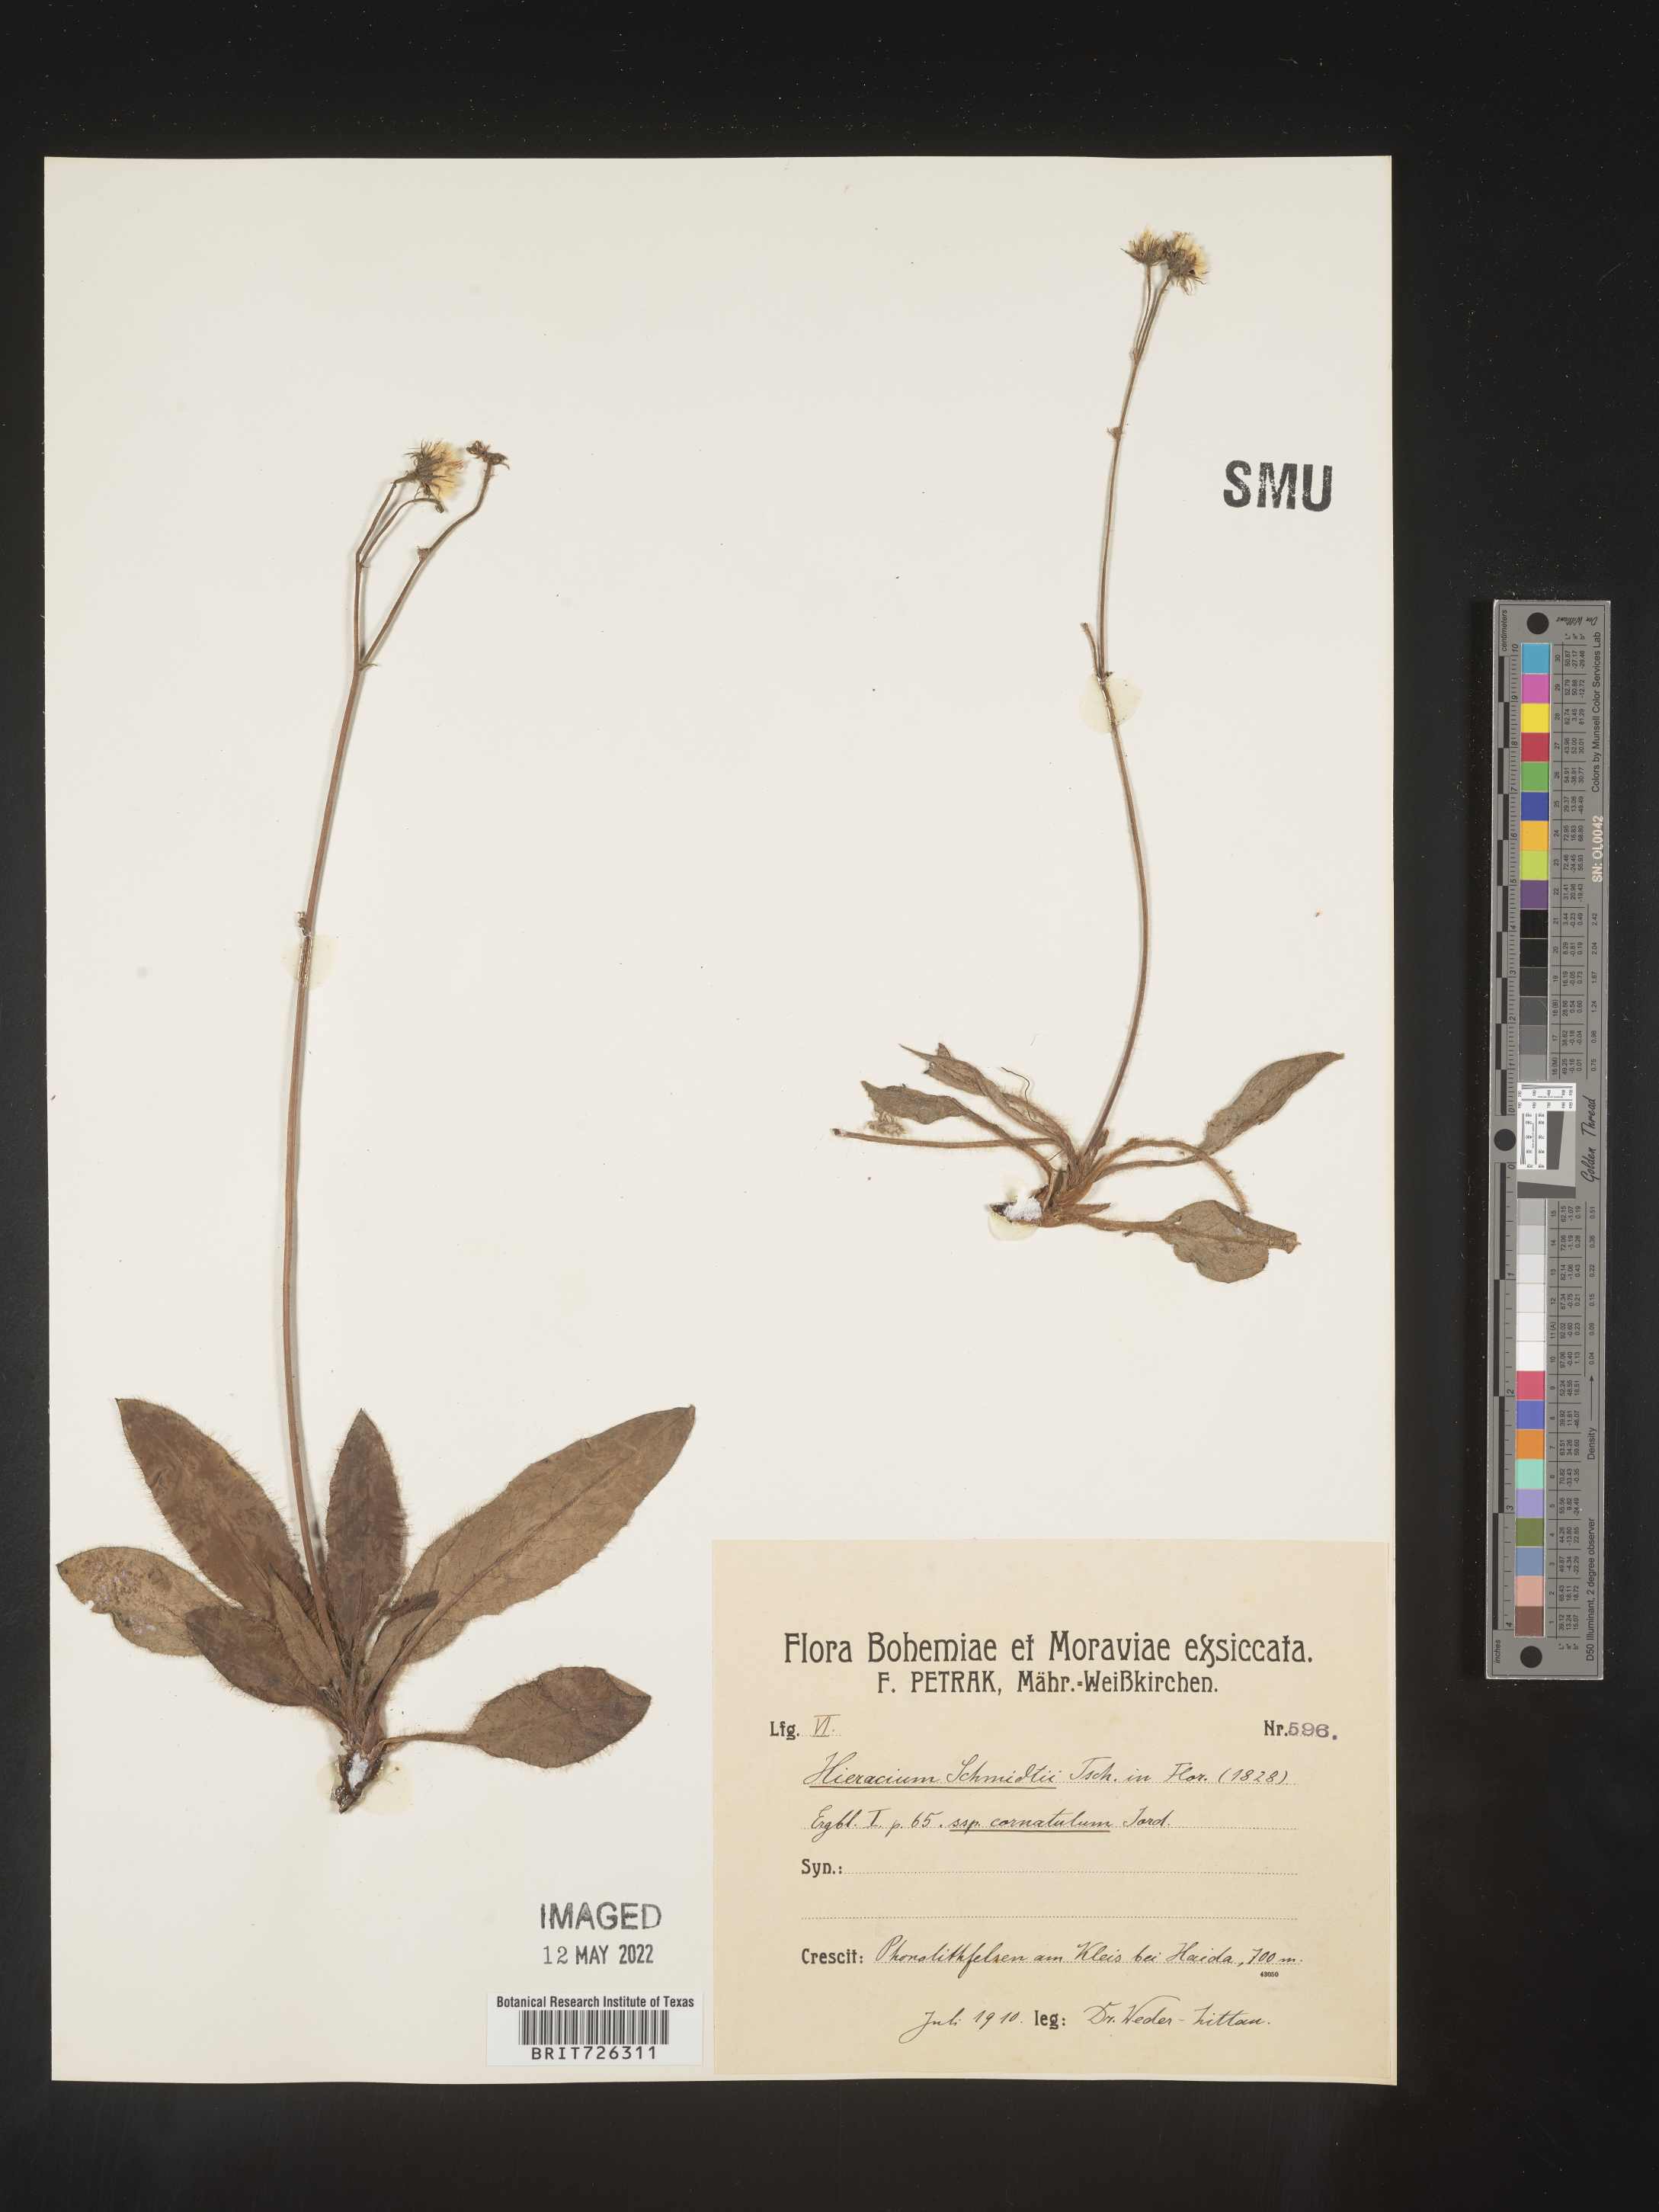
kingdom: Plantae
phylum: Tracheophyta
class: Magnoliopsida
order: Asterales
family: Asteraceae
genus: Hieracium
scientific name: Hieracium
